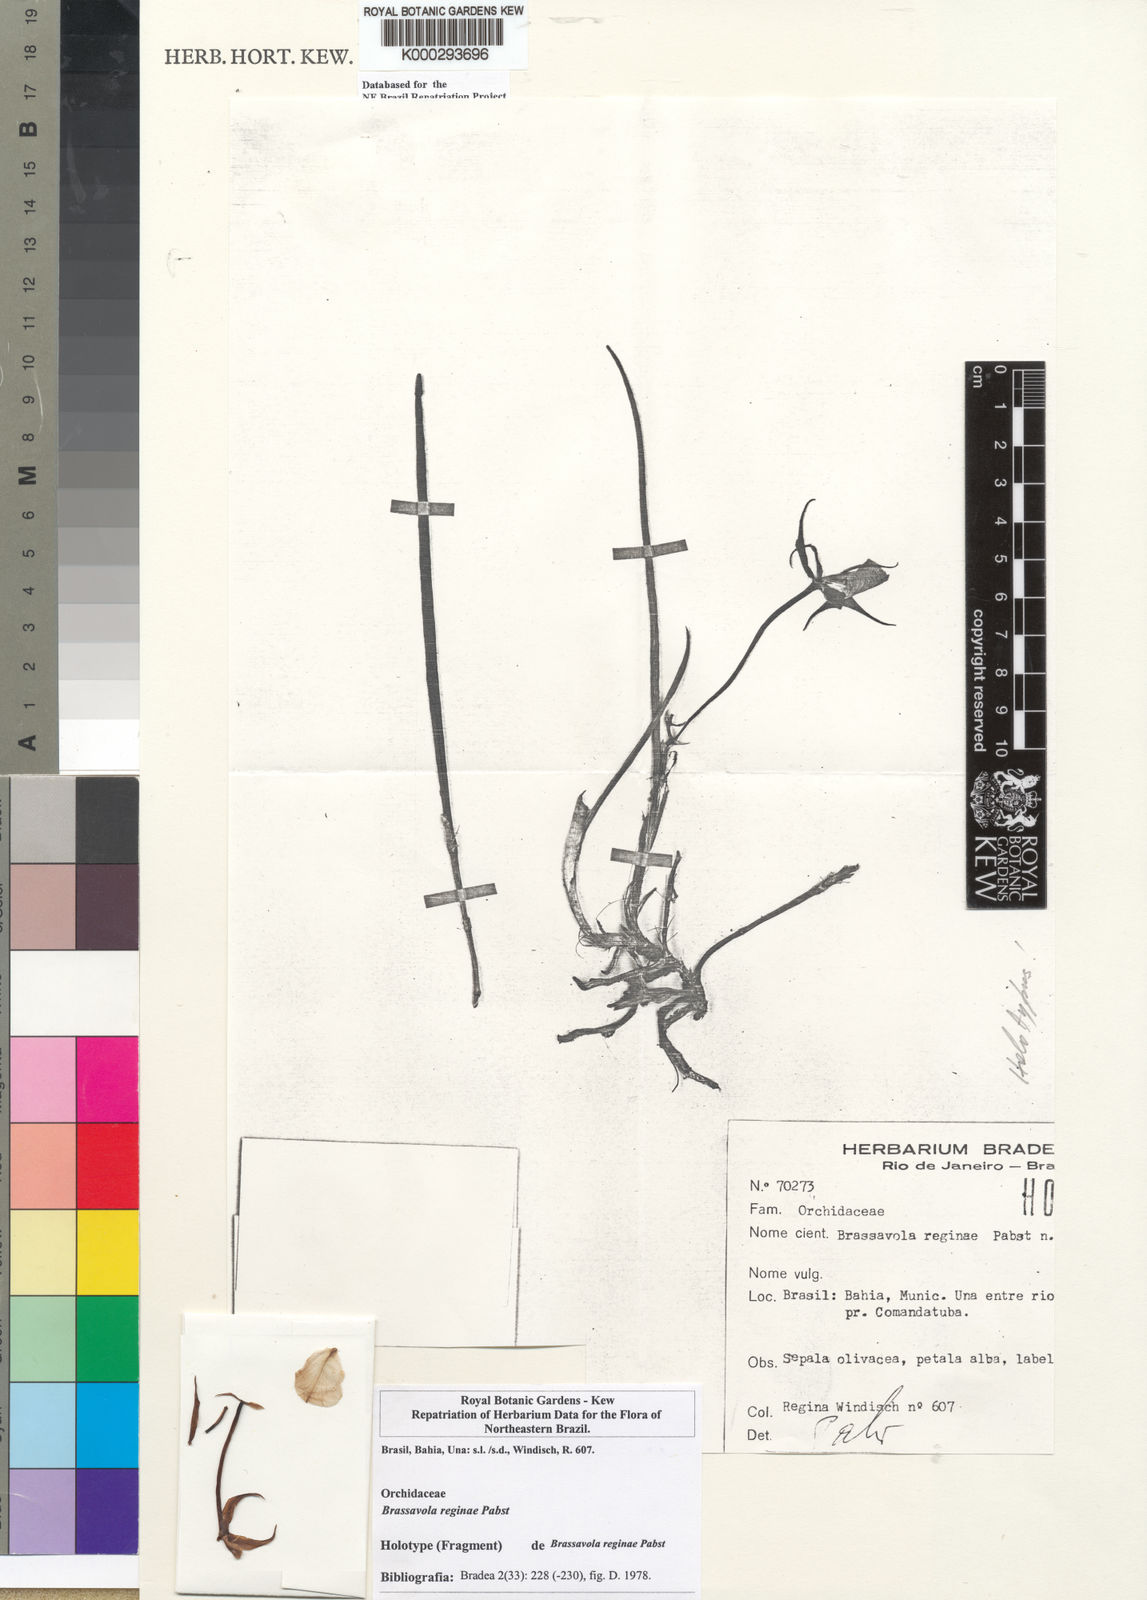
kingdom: Plantae
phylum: Tracheophyta
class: Liliopsida
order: Asparagales
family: Orchidaceae
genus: Brassavola
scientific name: Brassavola ceboletta
